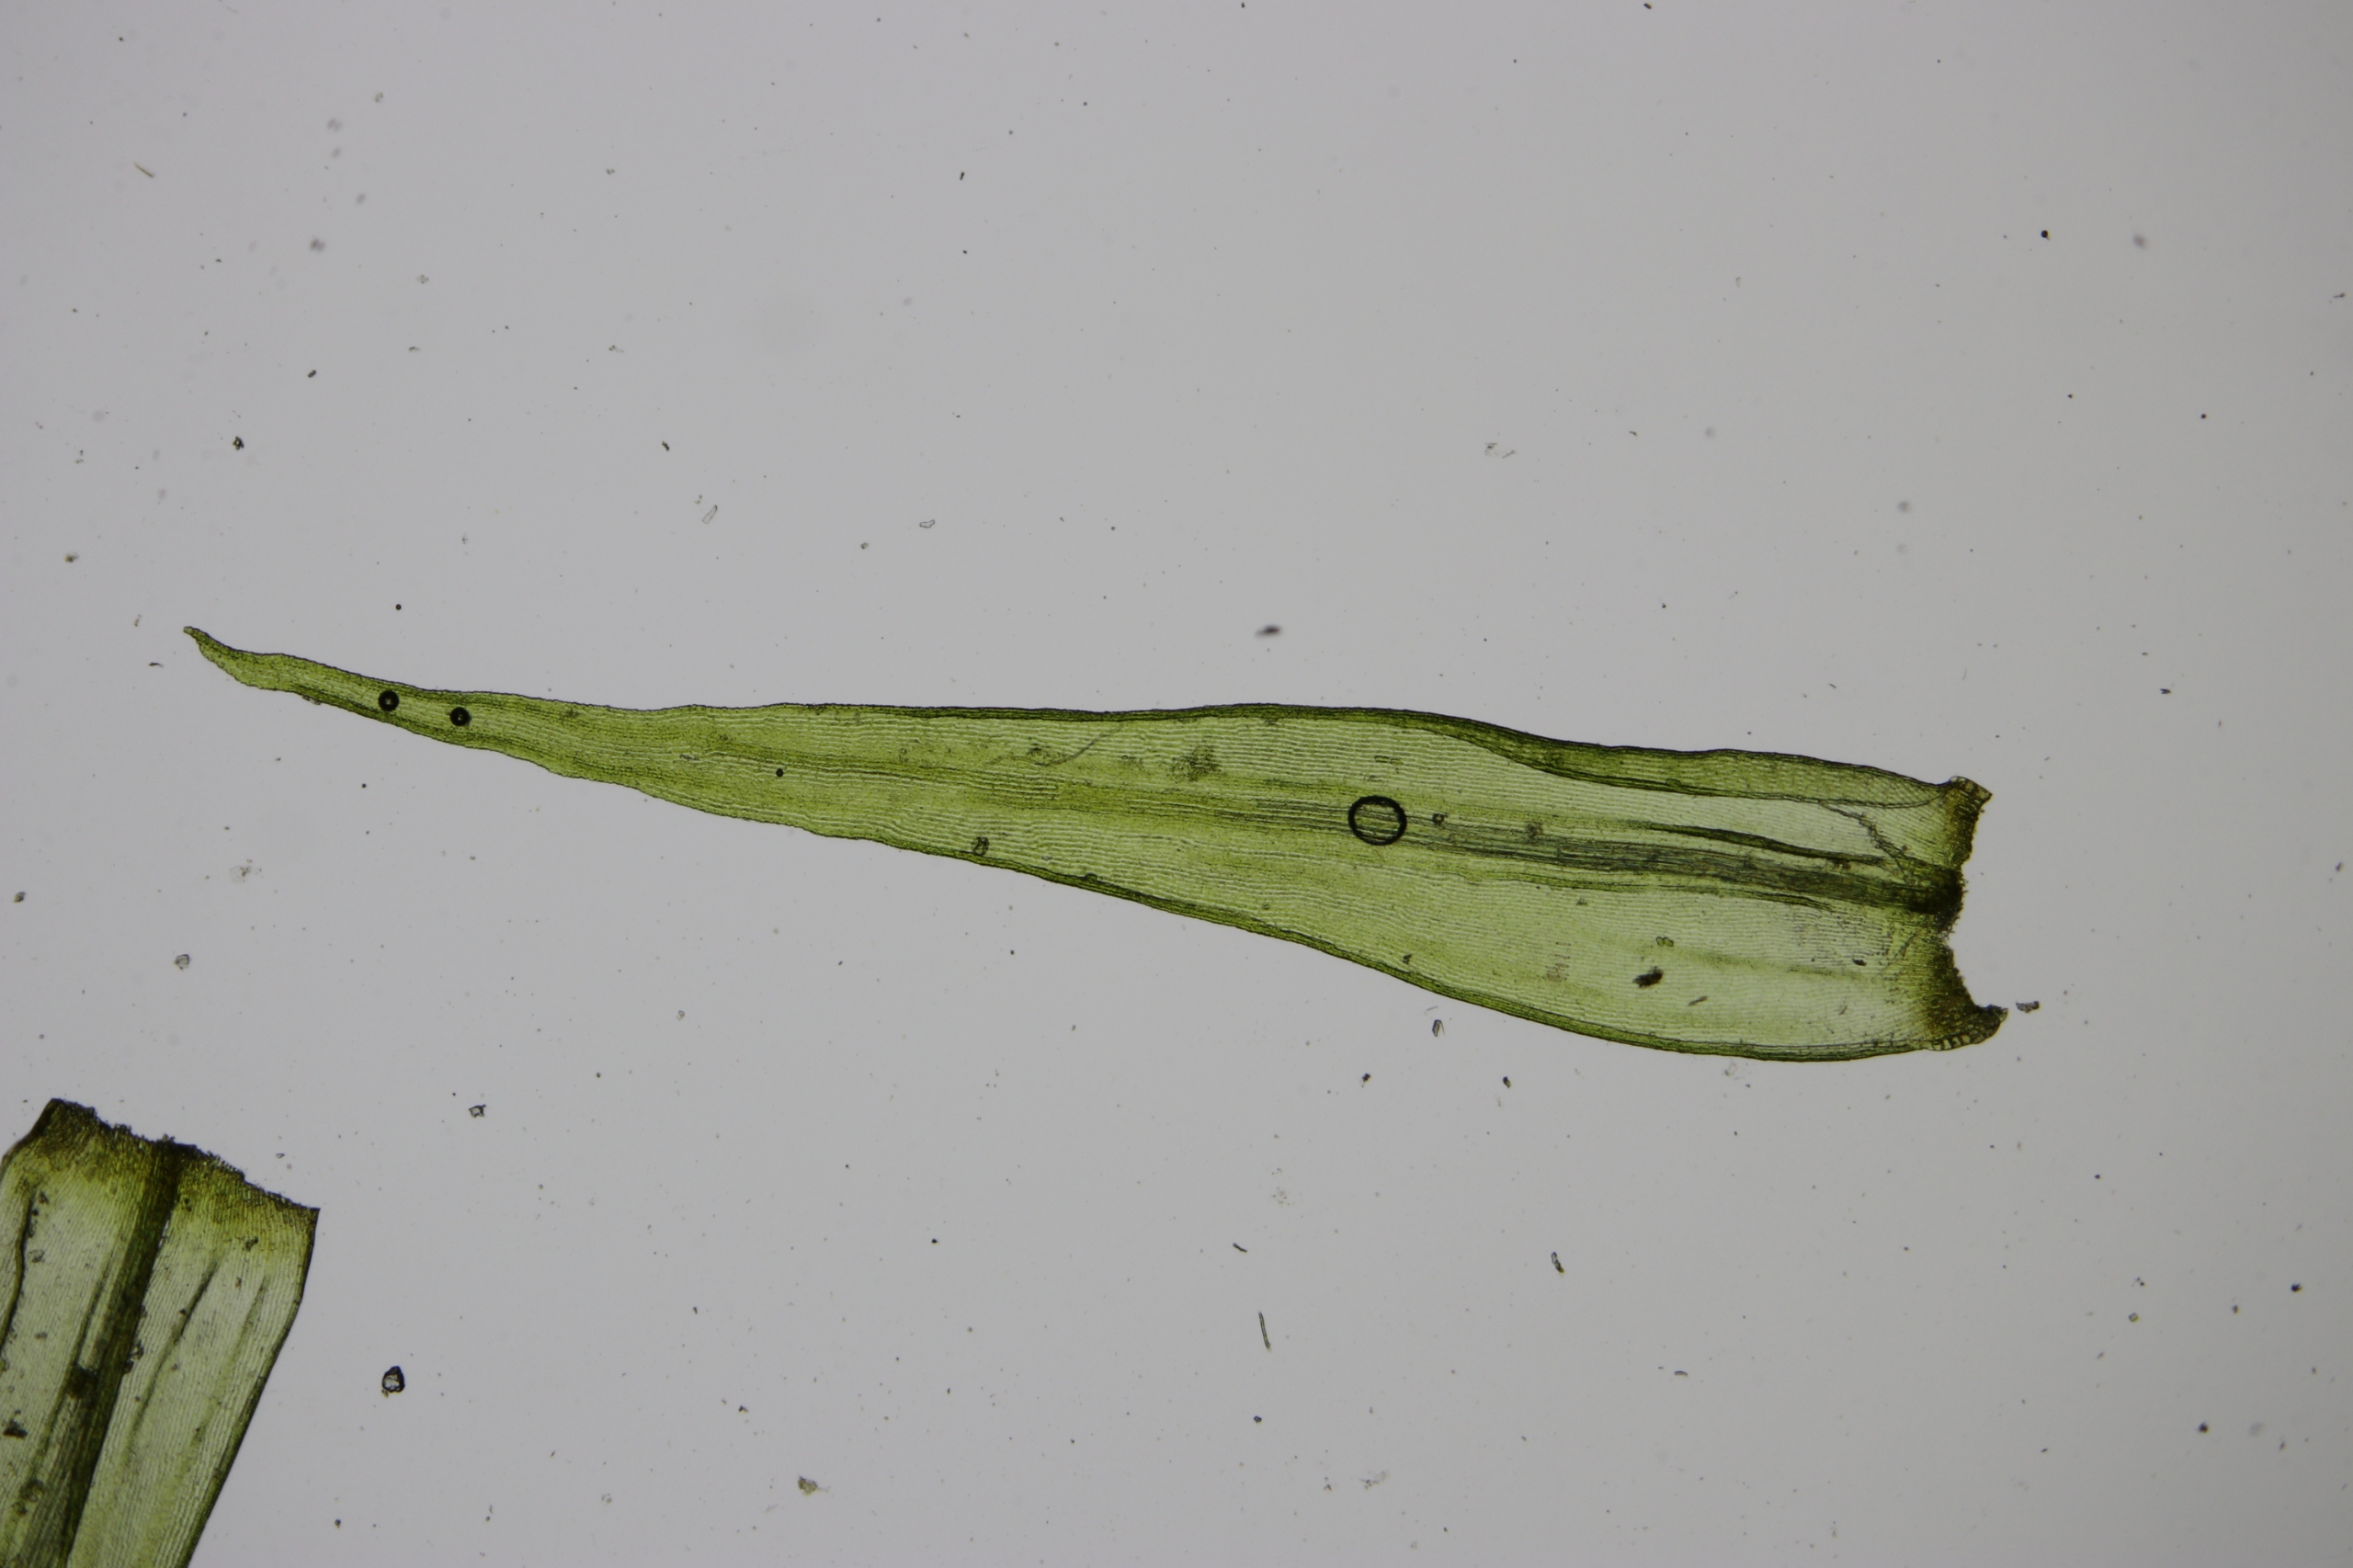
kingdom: Plantae
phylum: Bryophyta
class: Bryopsida
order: Grimmiales
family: Grimmiaceae
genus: Dilutineuron
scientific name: Dilutineuron fasciculare
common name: Knippe-børstemos
